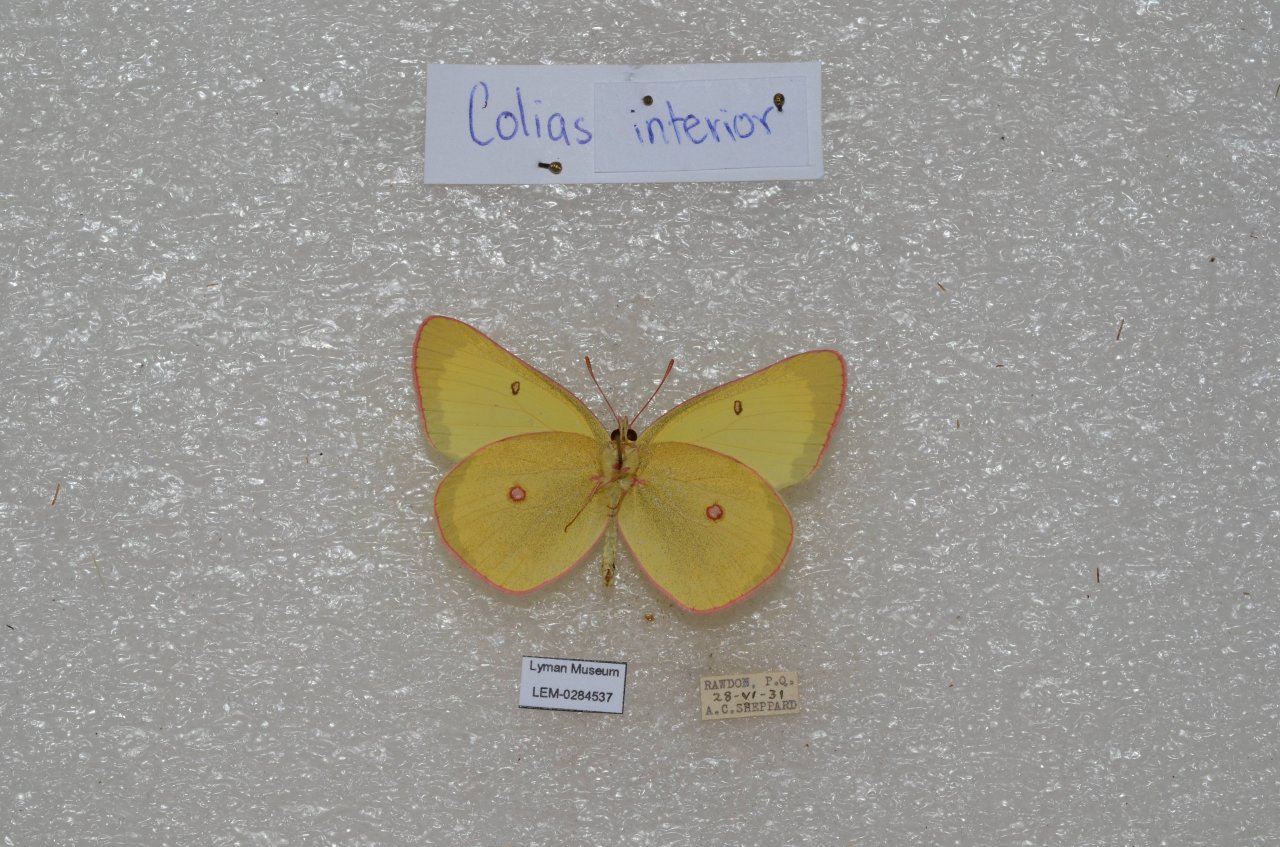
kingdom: Animalia
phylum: Arthropoda
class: Insecta
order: Lepidoptera
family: Pieridae
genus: Colias
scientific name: Colias interior
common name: Pink-edged Sulphur
